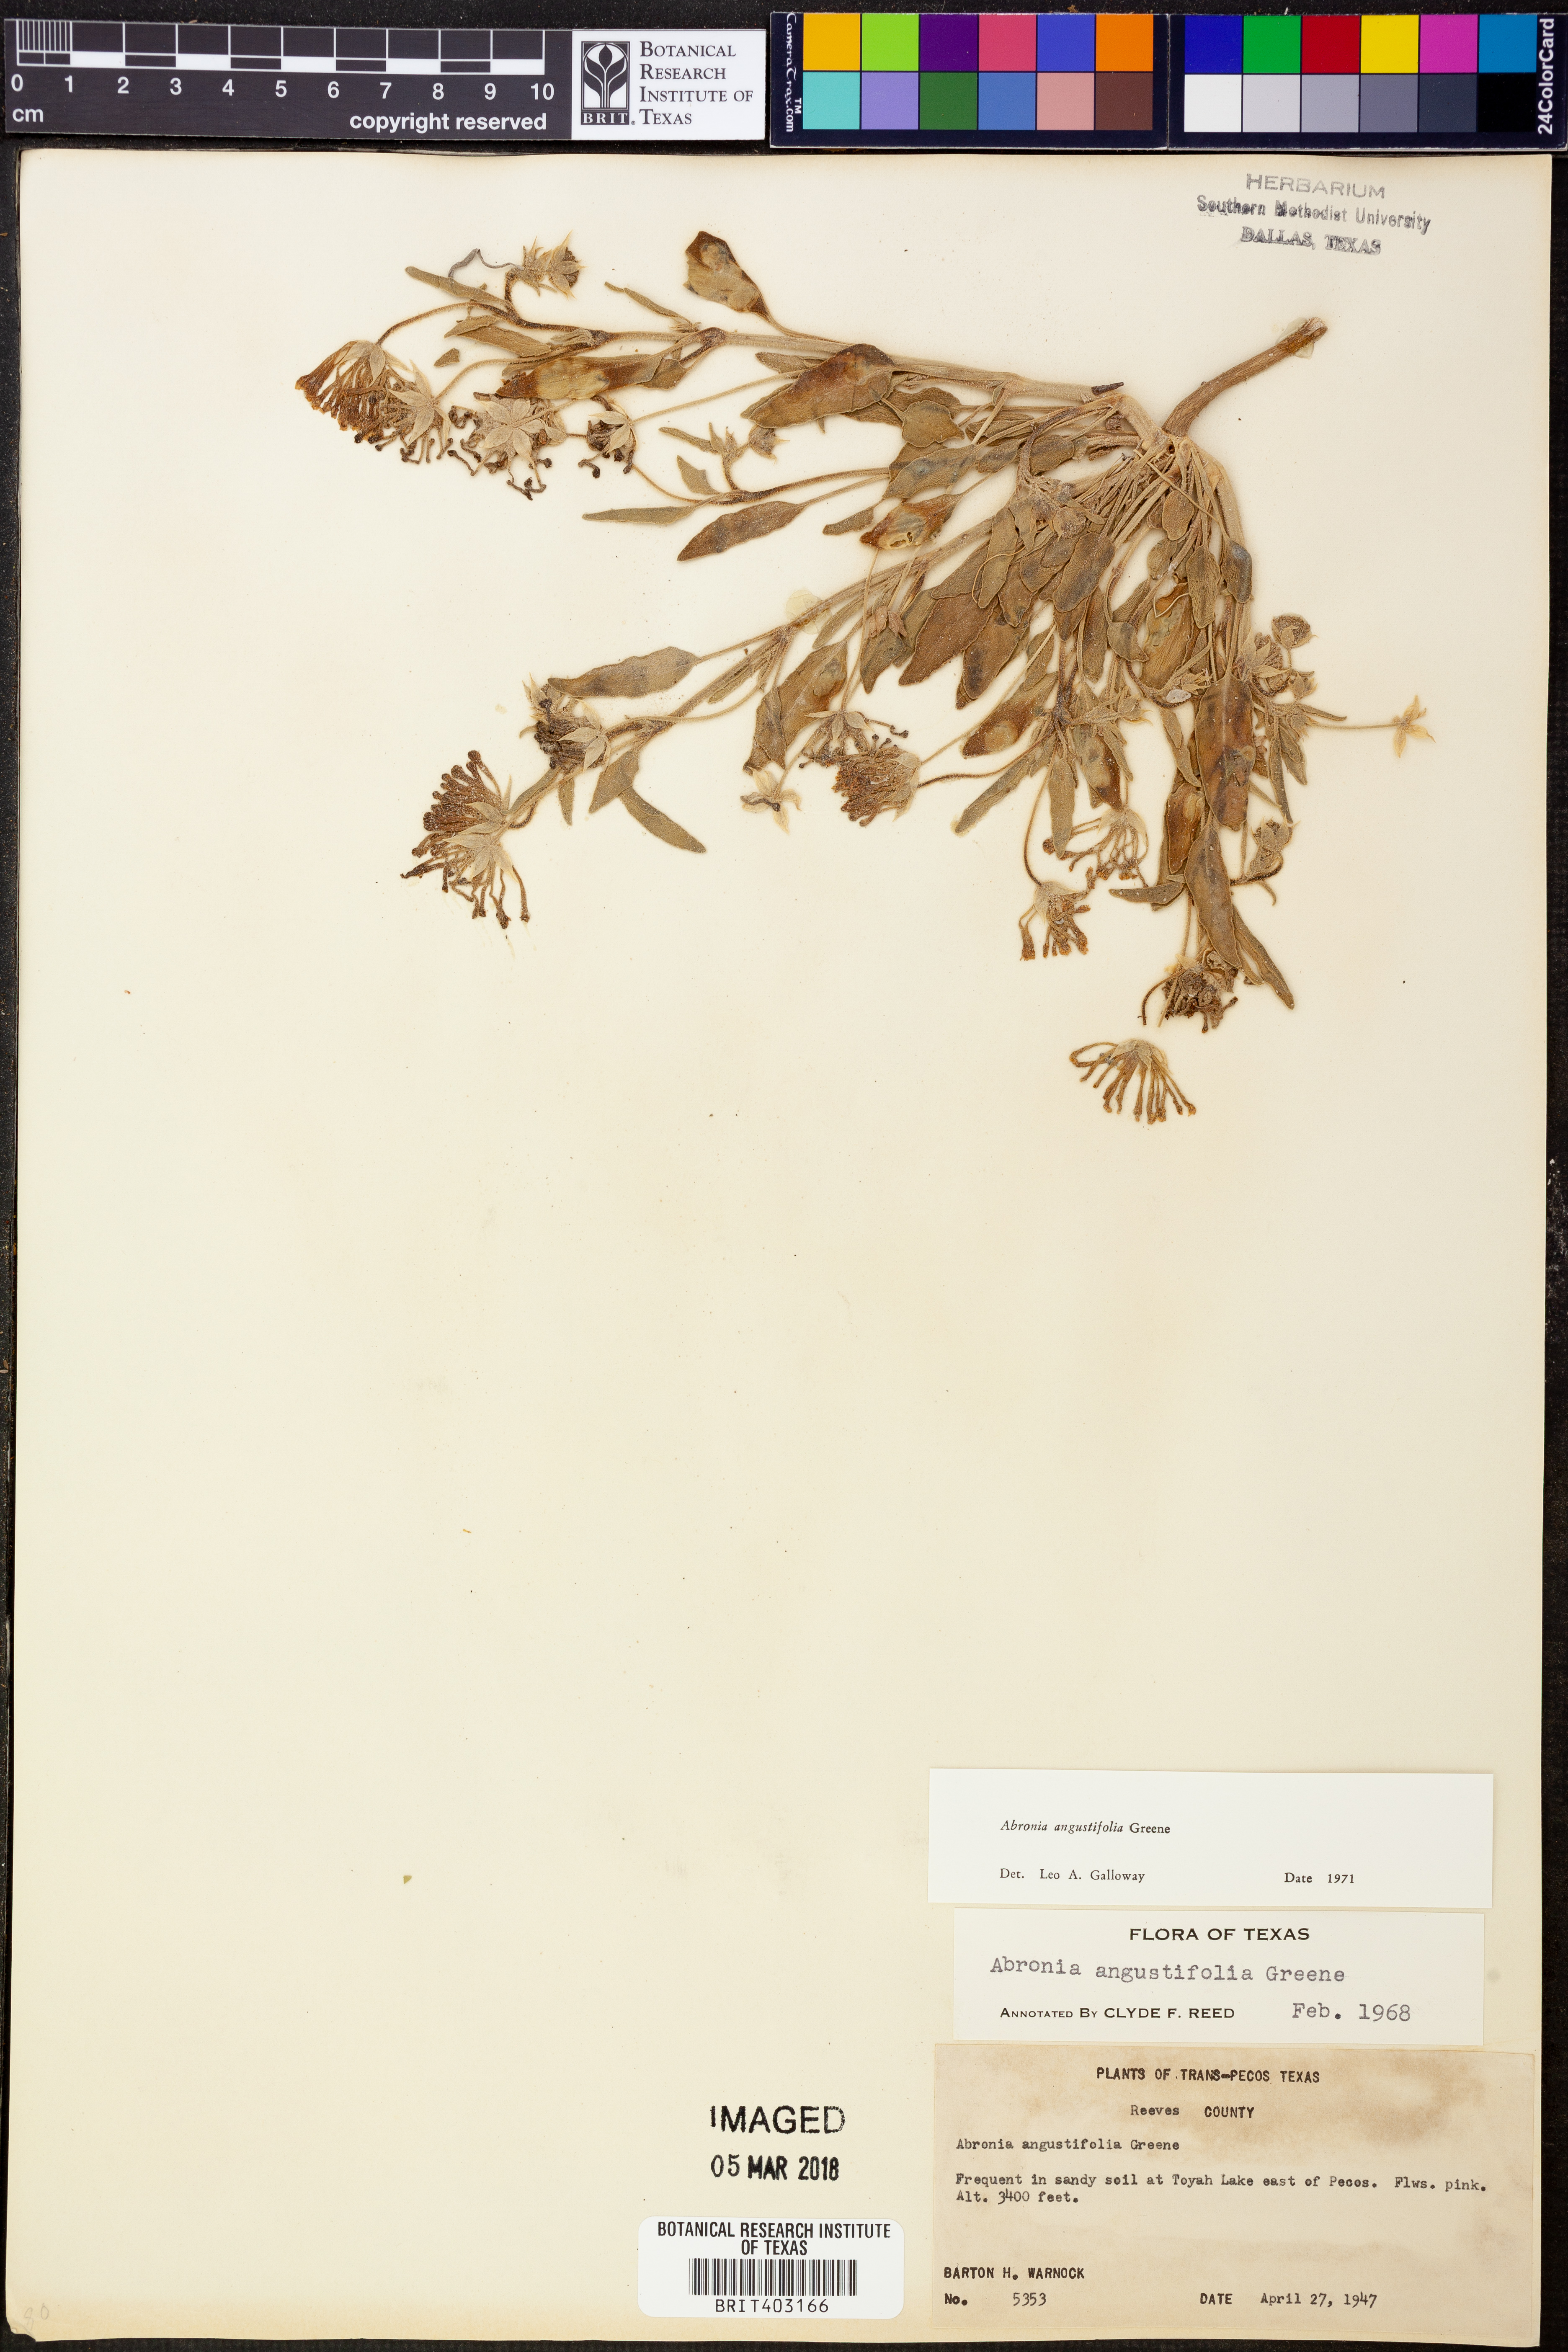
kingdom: Plantae
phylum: Tracheophyta
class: Magnoliopsida
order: Caryophyllales
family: Nyctaginaceae
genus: Abronia
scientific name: Abronia angustifolia
